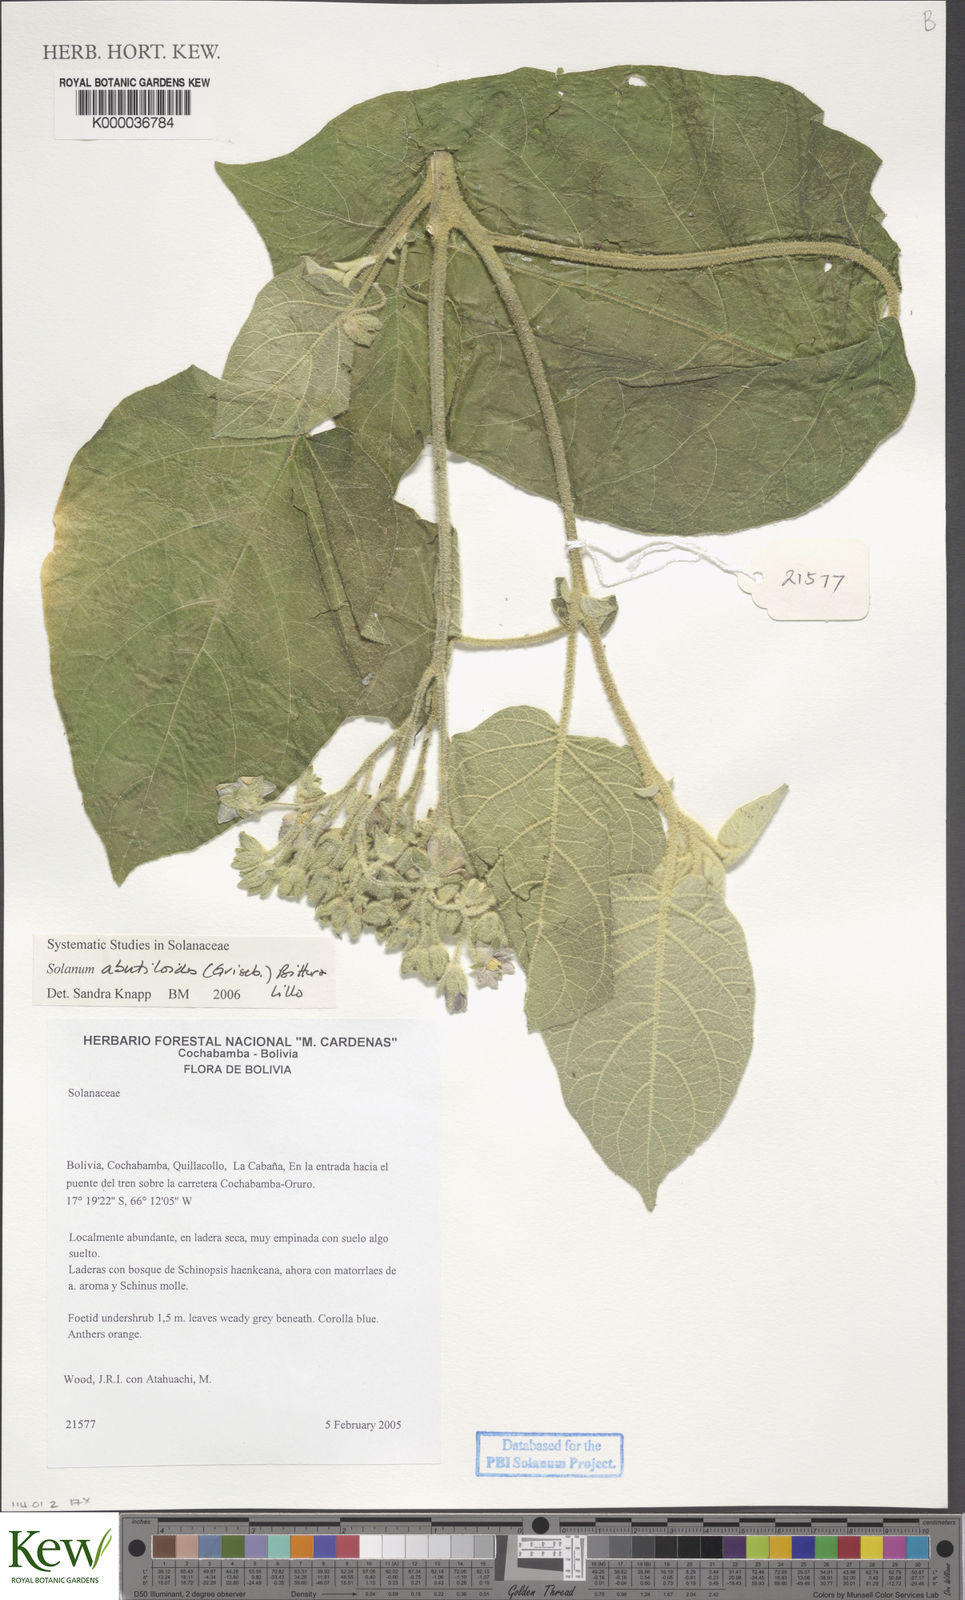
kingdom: Plantae
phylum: Tracheophyta
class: Magnoliopsida
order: Solanales
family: Solanaceae
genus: Solanum
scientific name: Solanum abutiloides
